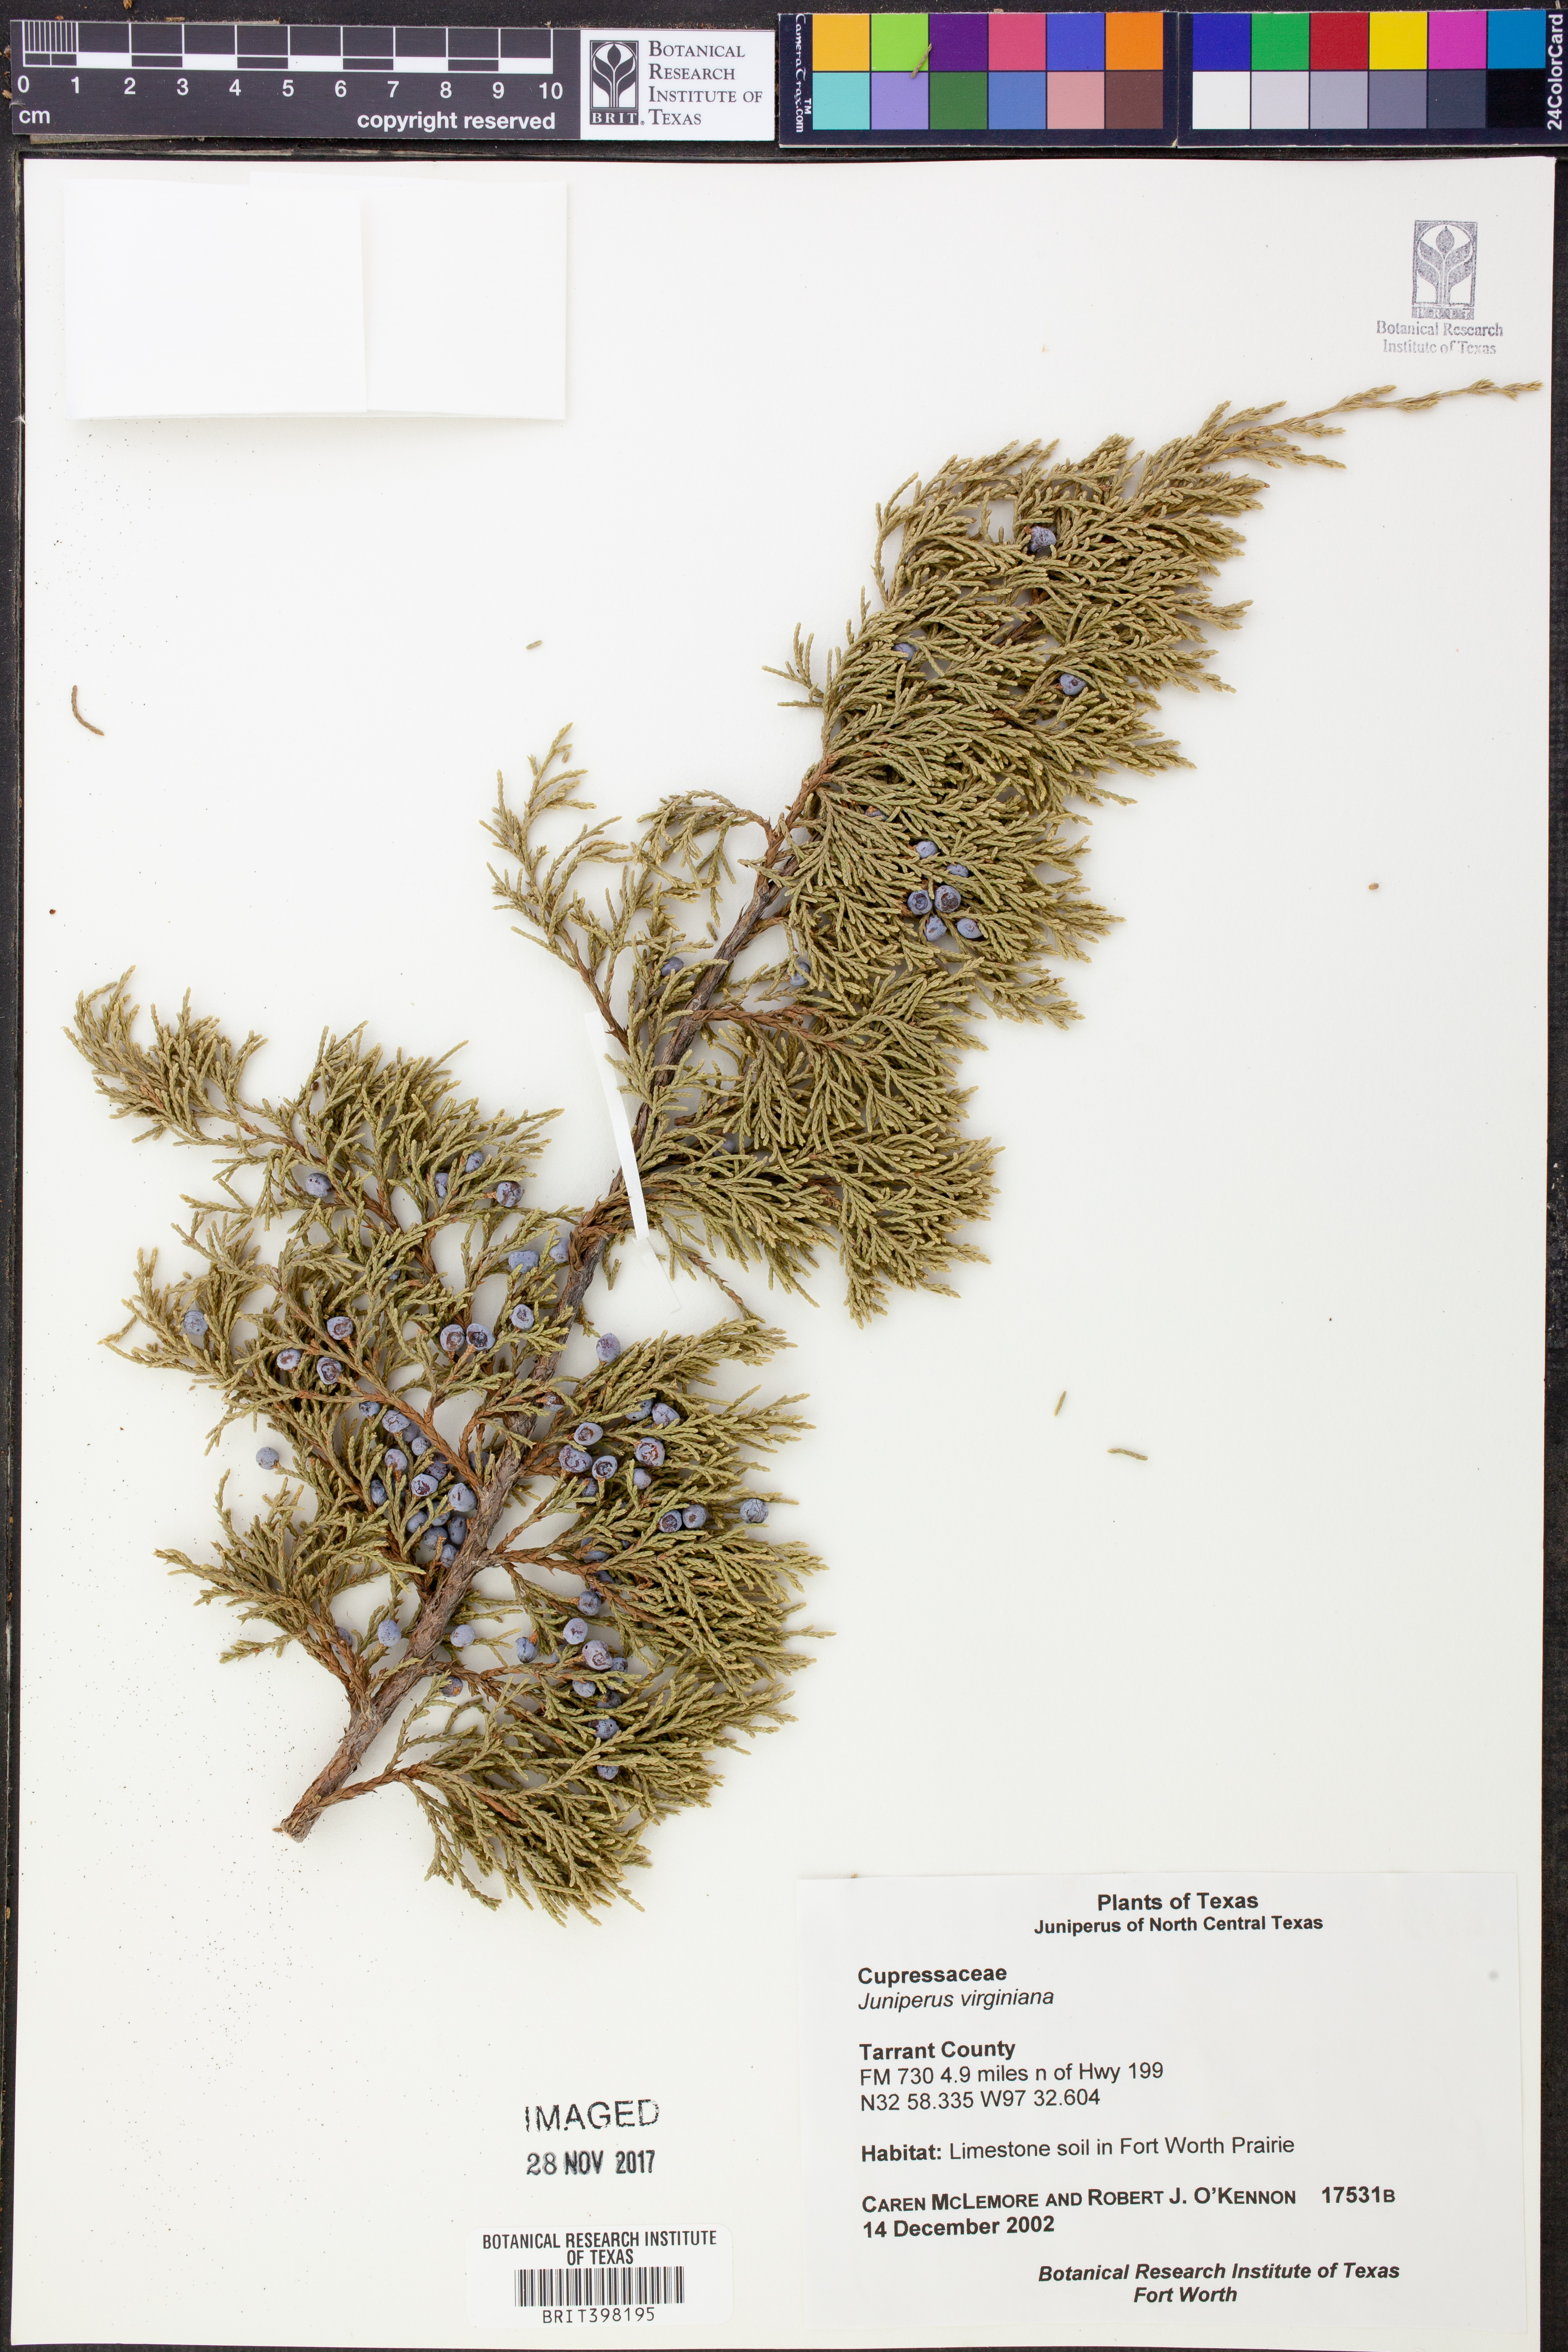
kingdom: Plantae
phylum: Tracheophyta
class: Pinopsida
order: Pinales
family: Cupressaceae
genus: Juniperus
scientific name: Juniperus virginiana
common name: Red juniper
